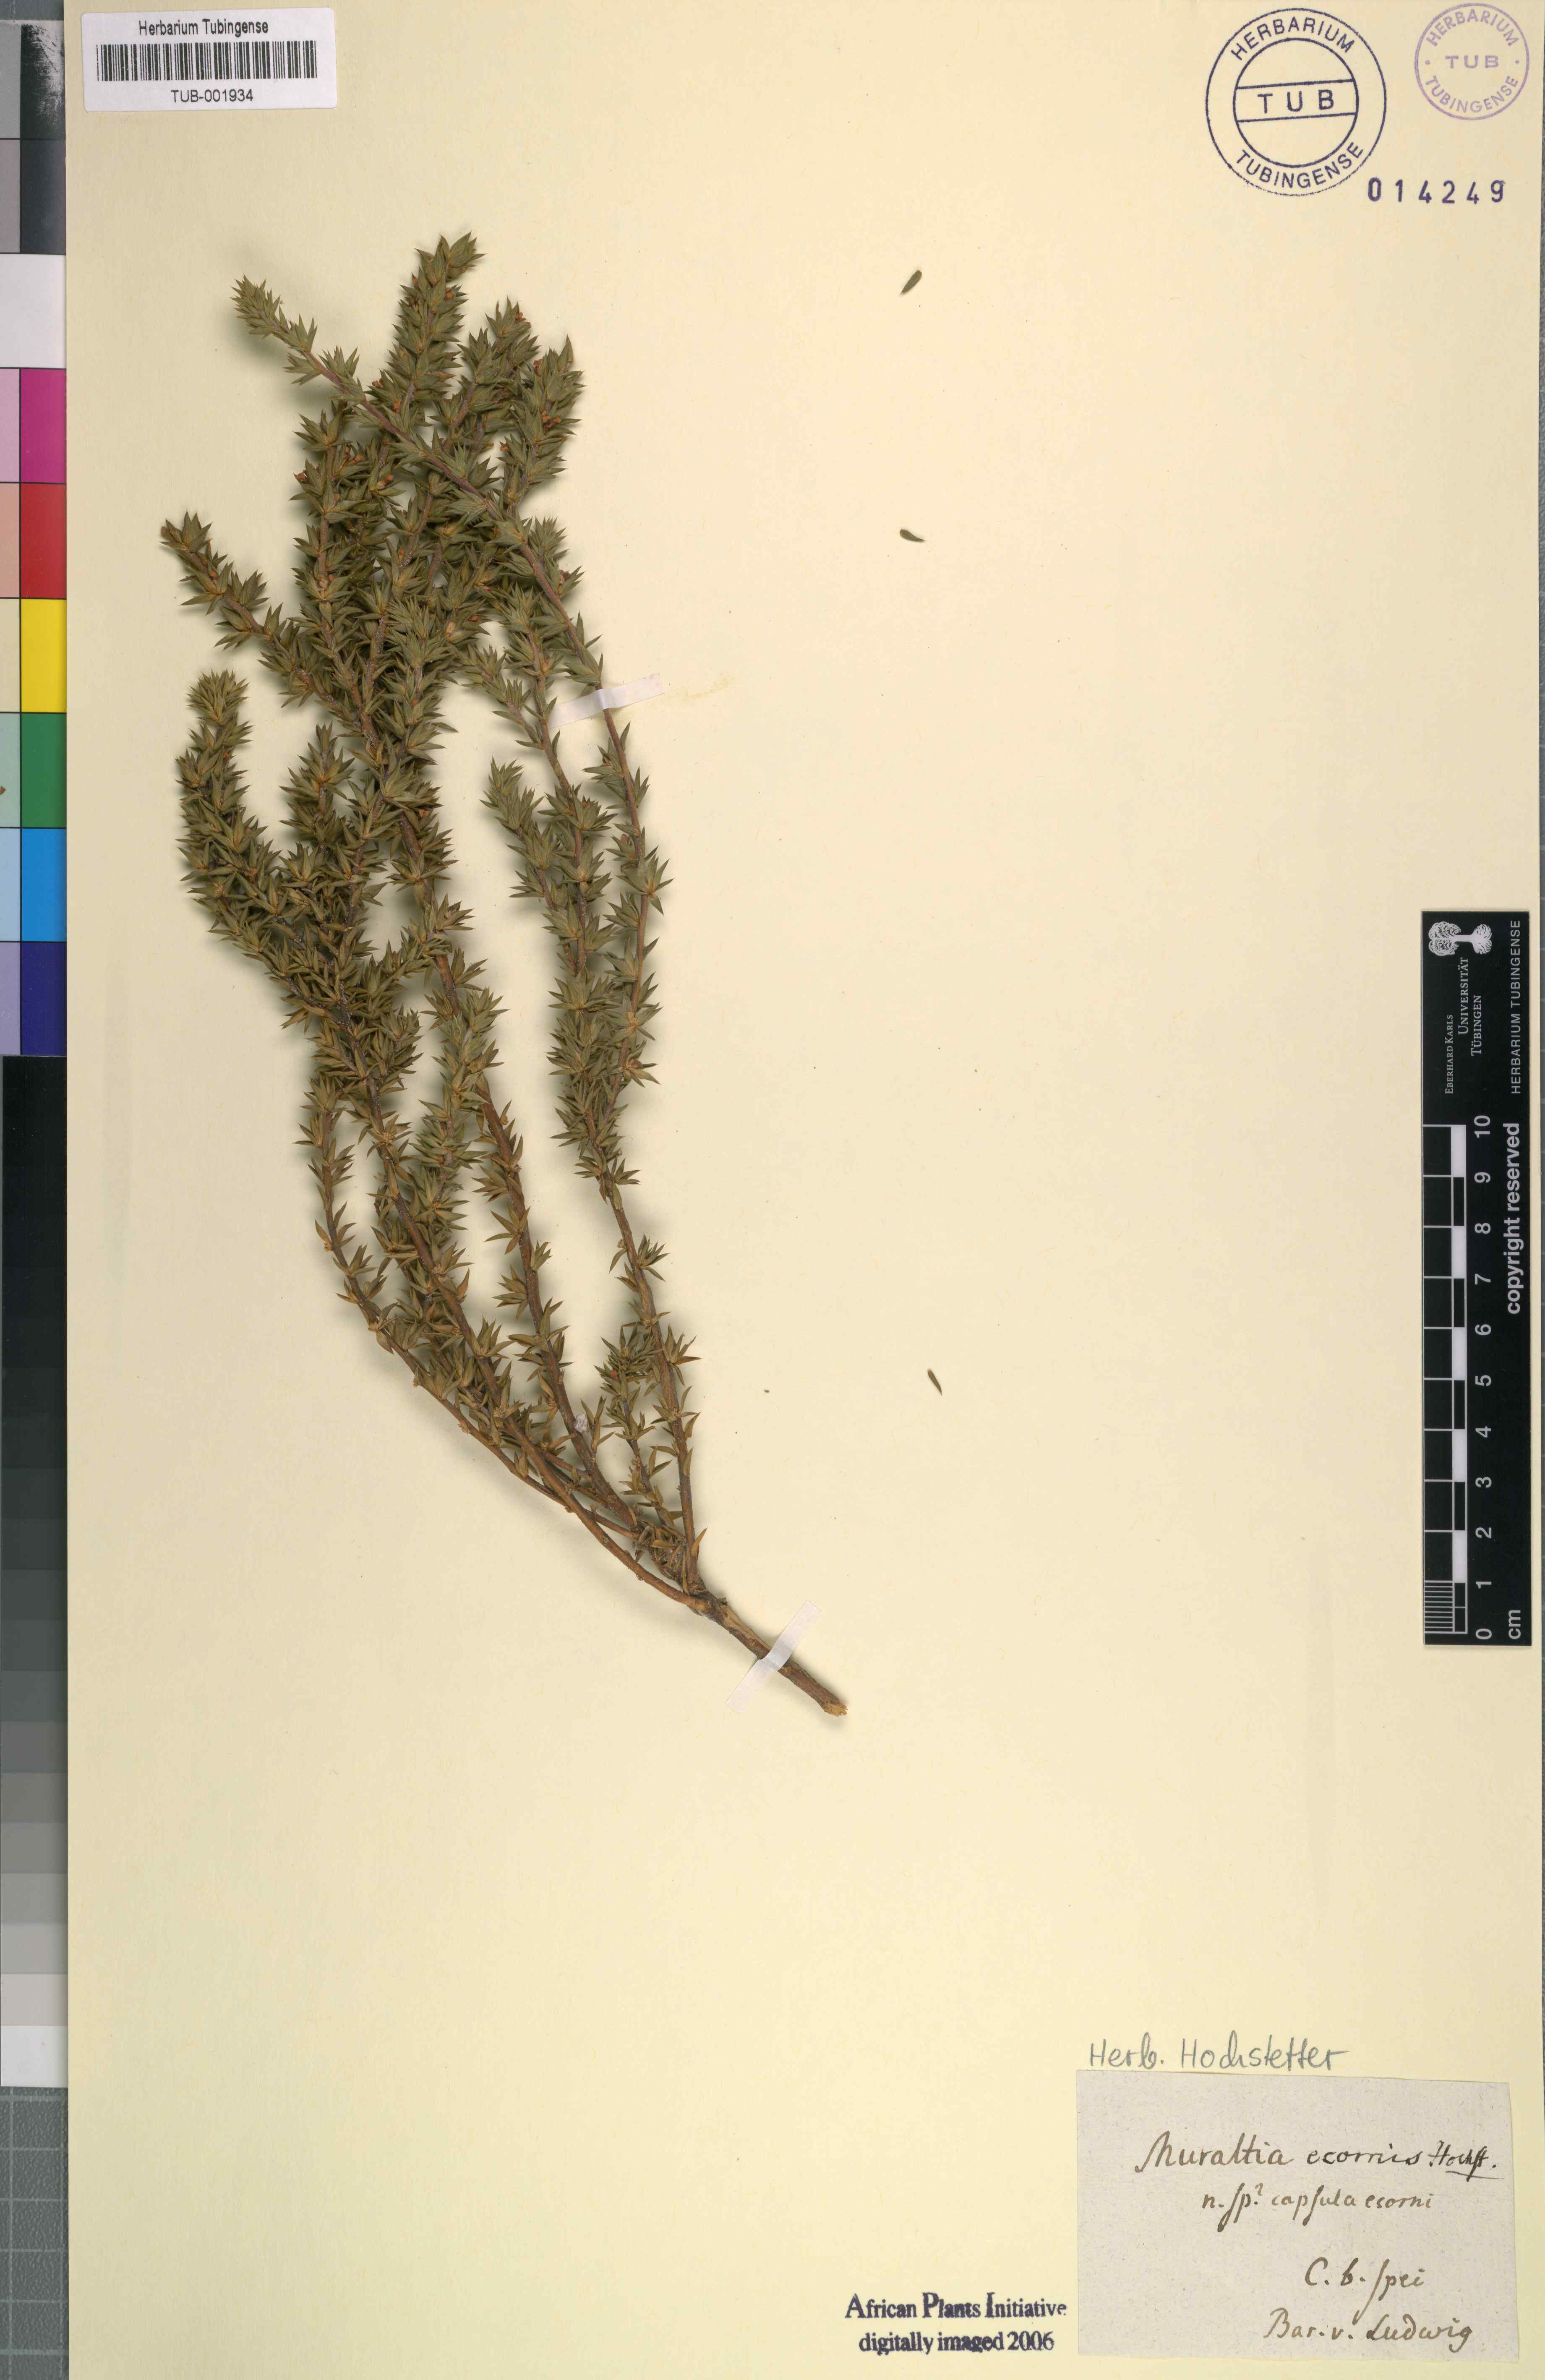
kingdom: Plantae
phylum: Tracheophyta
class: Magnoliopsida
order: Fabales
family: Polygalaceae
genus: Muraltia
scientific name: Muraltia
